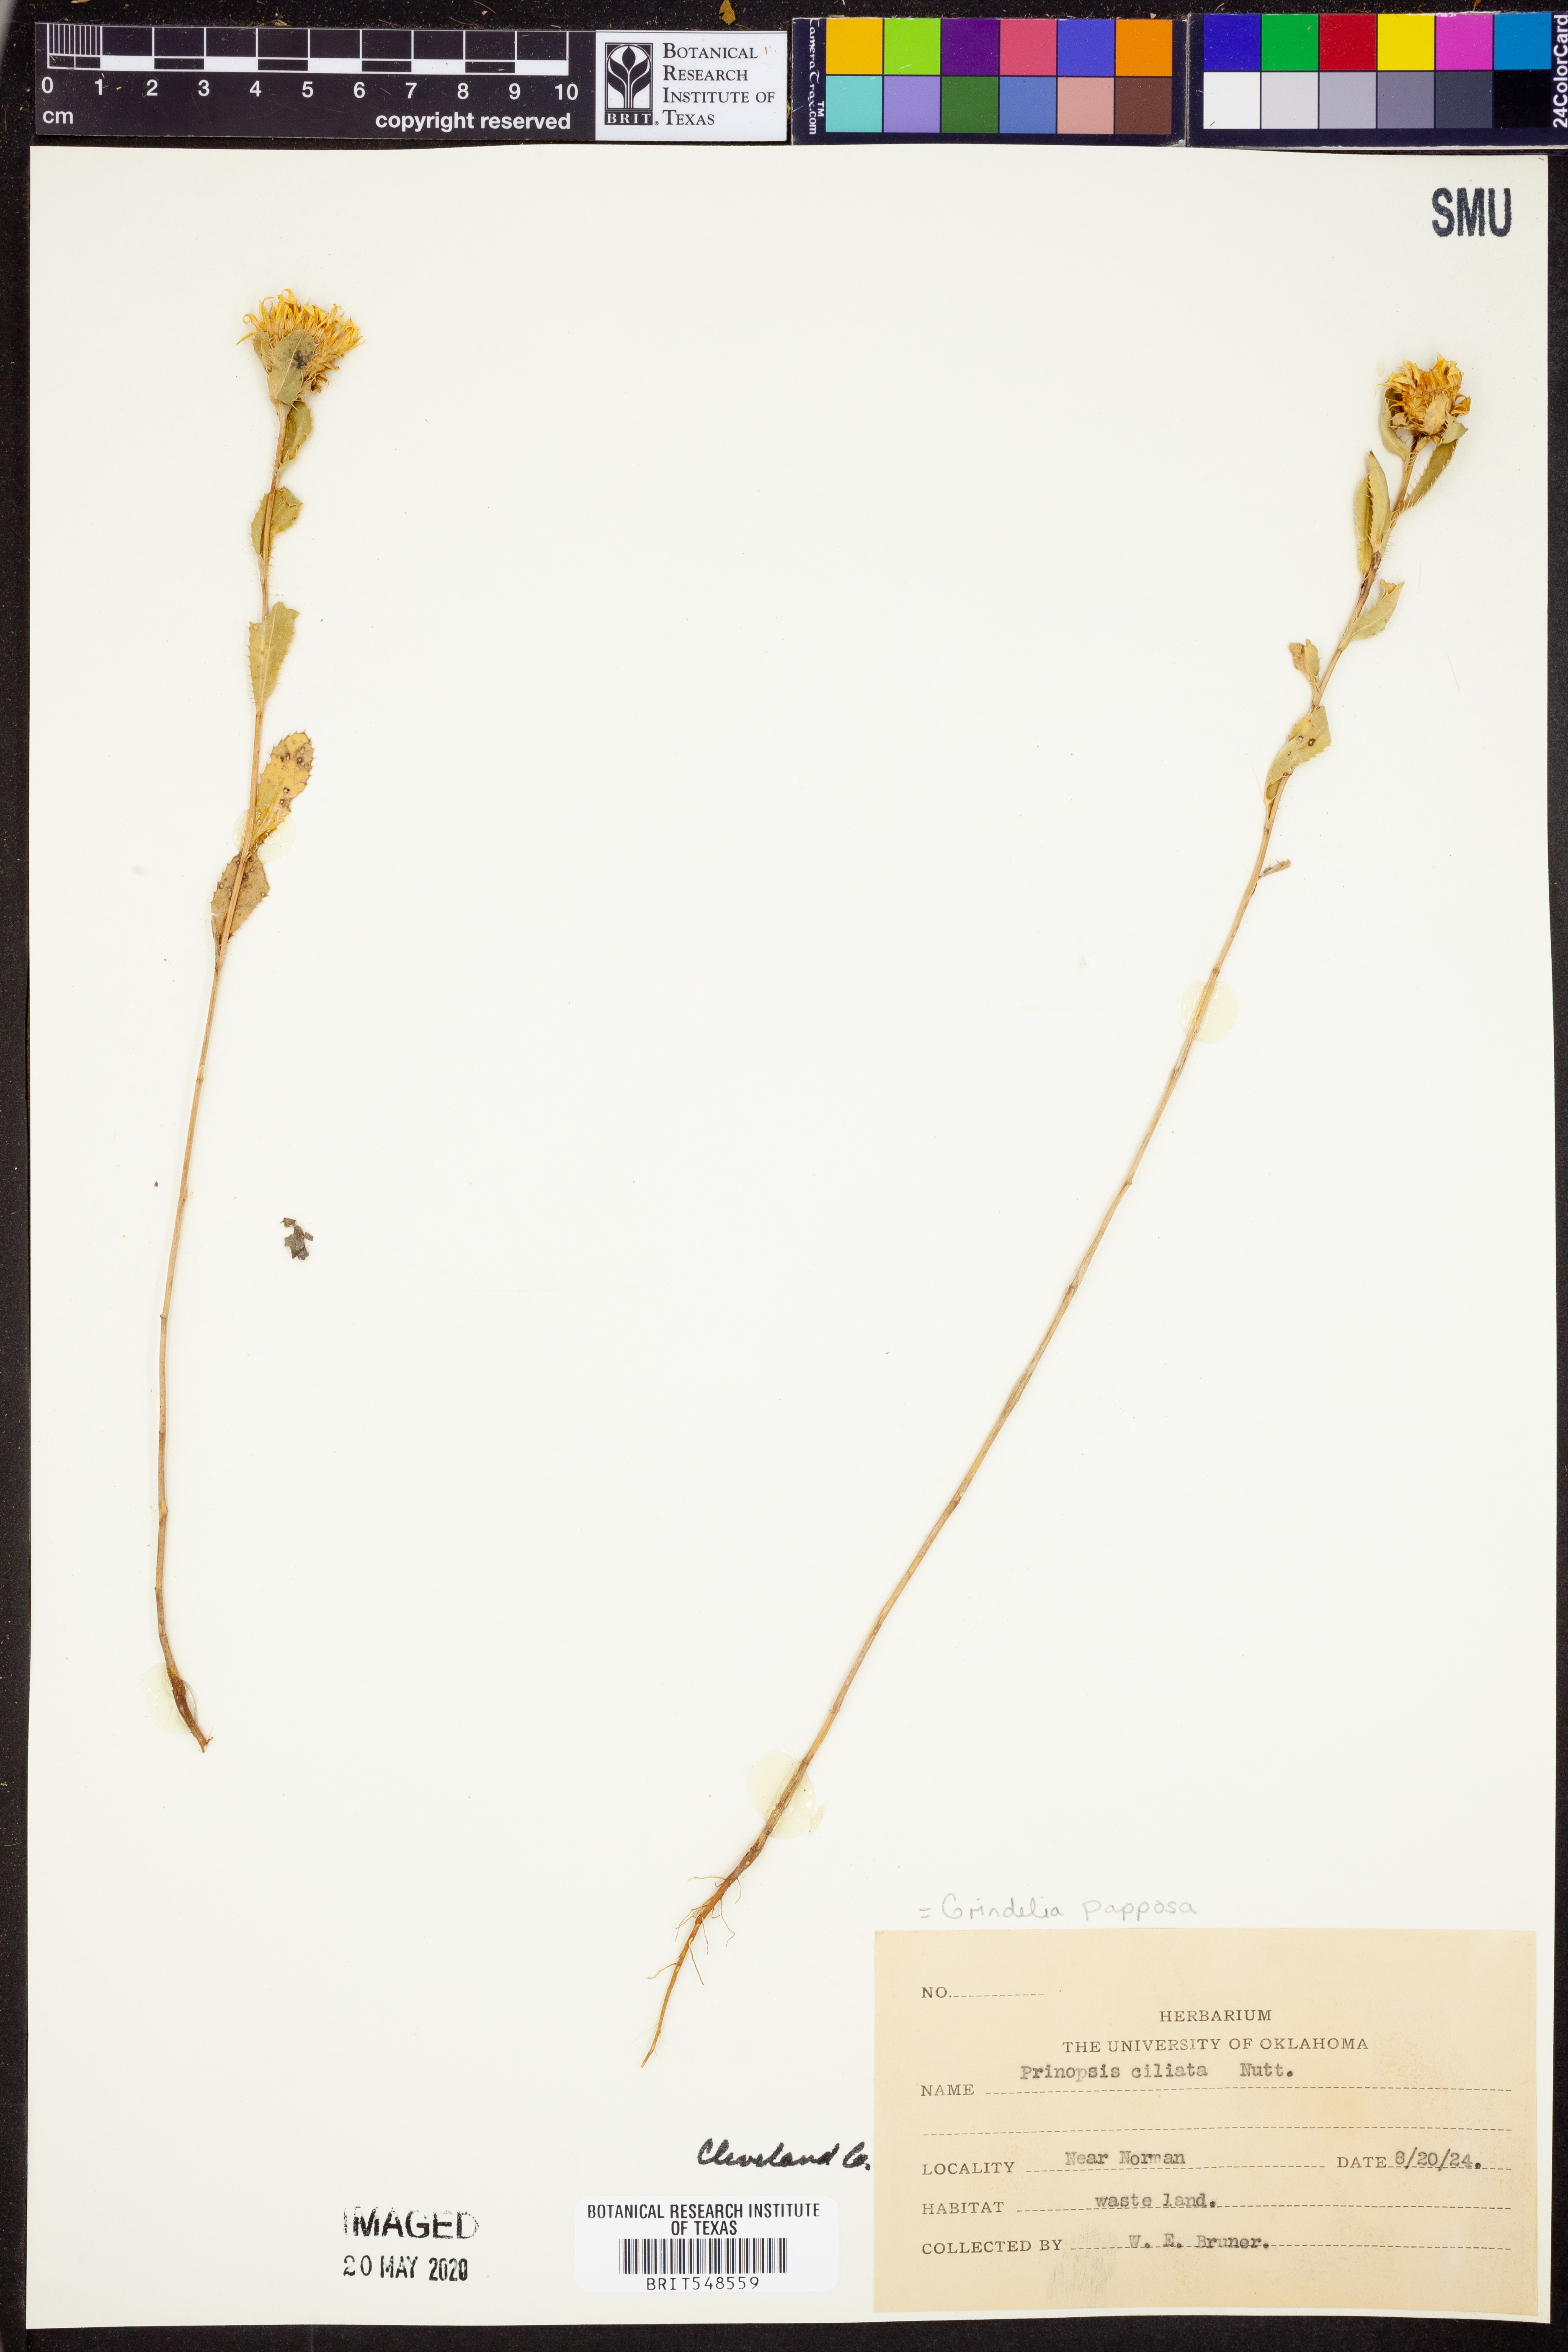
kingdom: Plantae
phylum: Tracheophyta
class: Magnoliopsida
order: Asterales
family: Asteraceae
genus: Grindelia
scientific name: Grindelia ciliata
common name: Goldenweed
